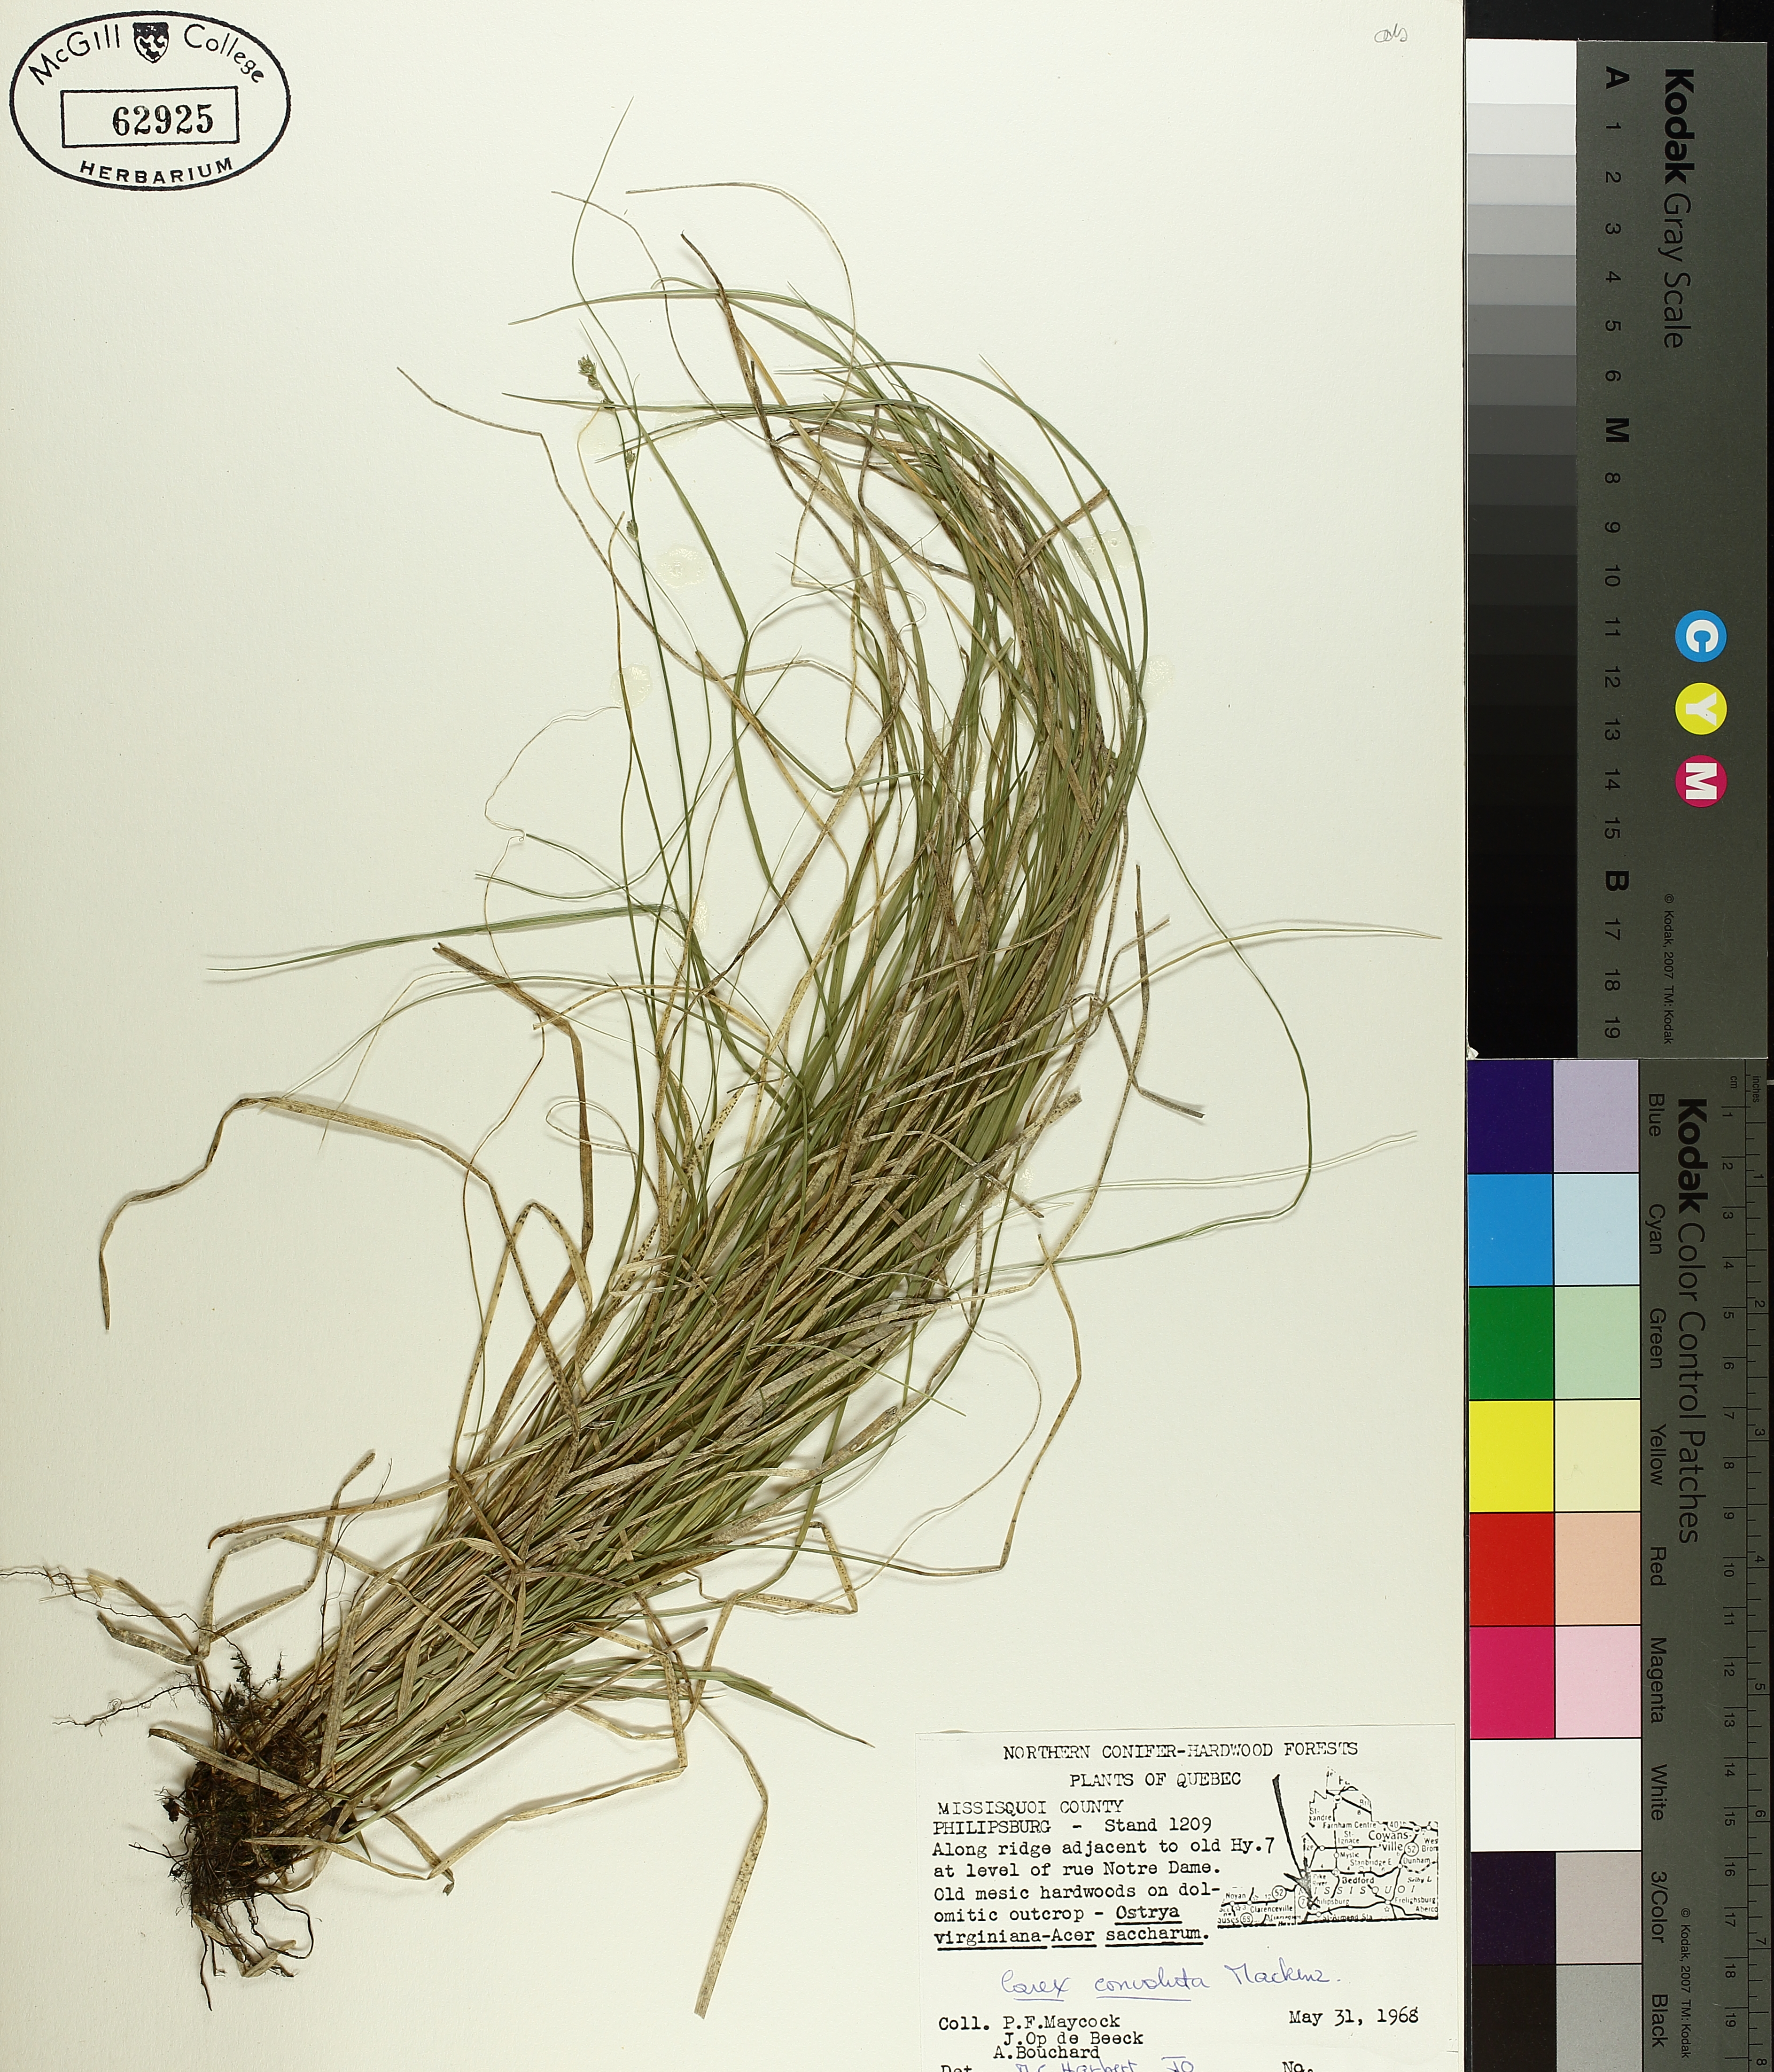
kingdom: Plantae
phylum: Tracheophyta
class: Liliopsida
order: Poales
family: Cyperaceae
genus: Carex
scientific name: Carex rosea
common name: Curly-styled wood sedge
